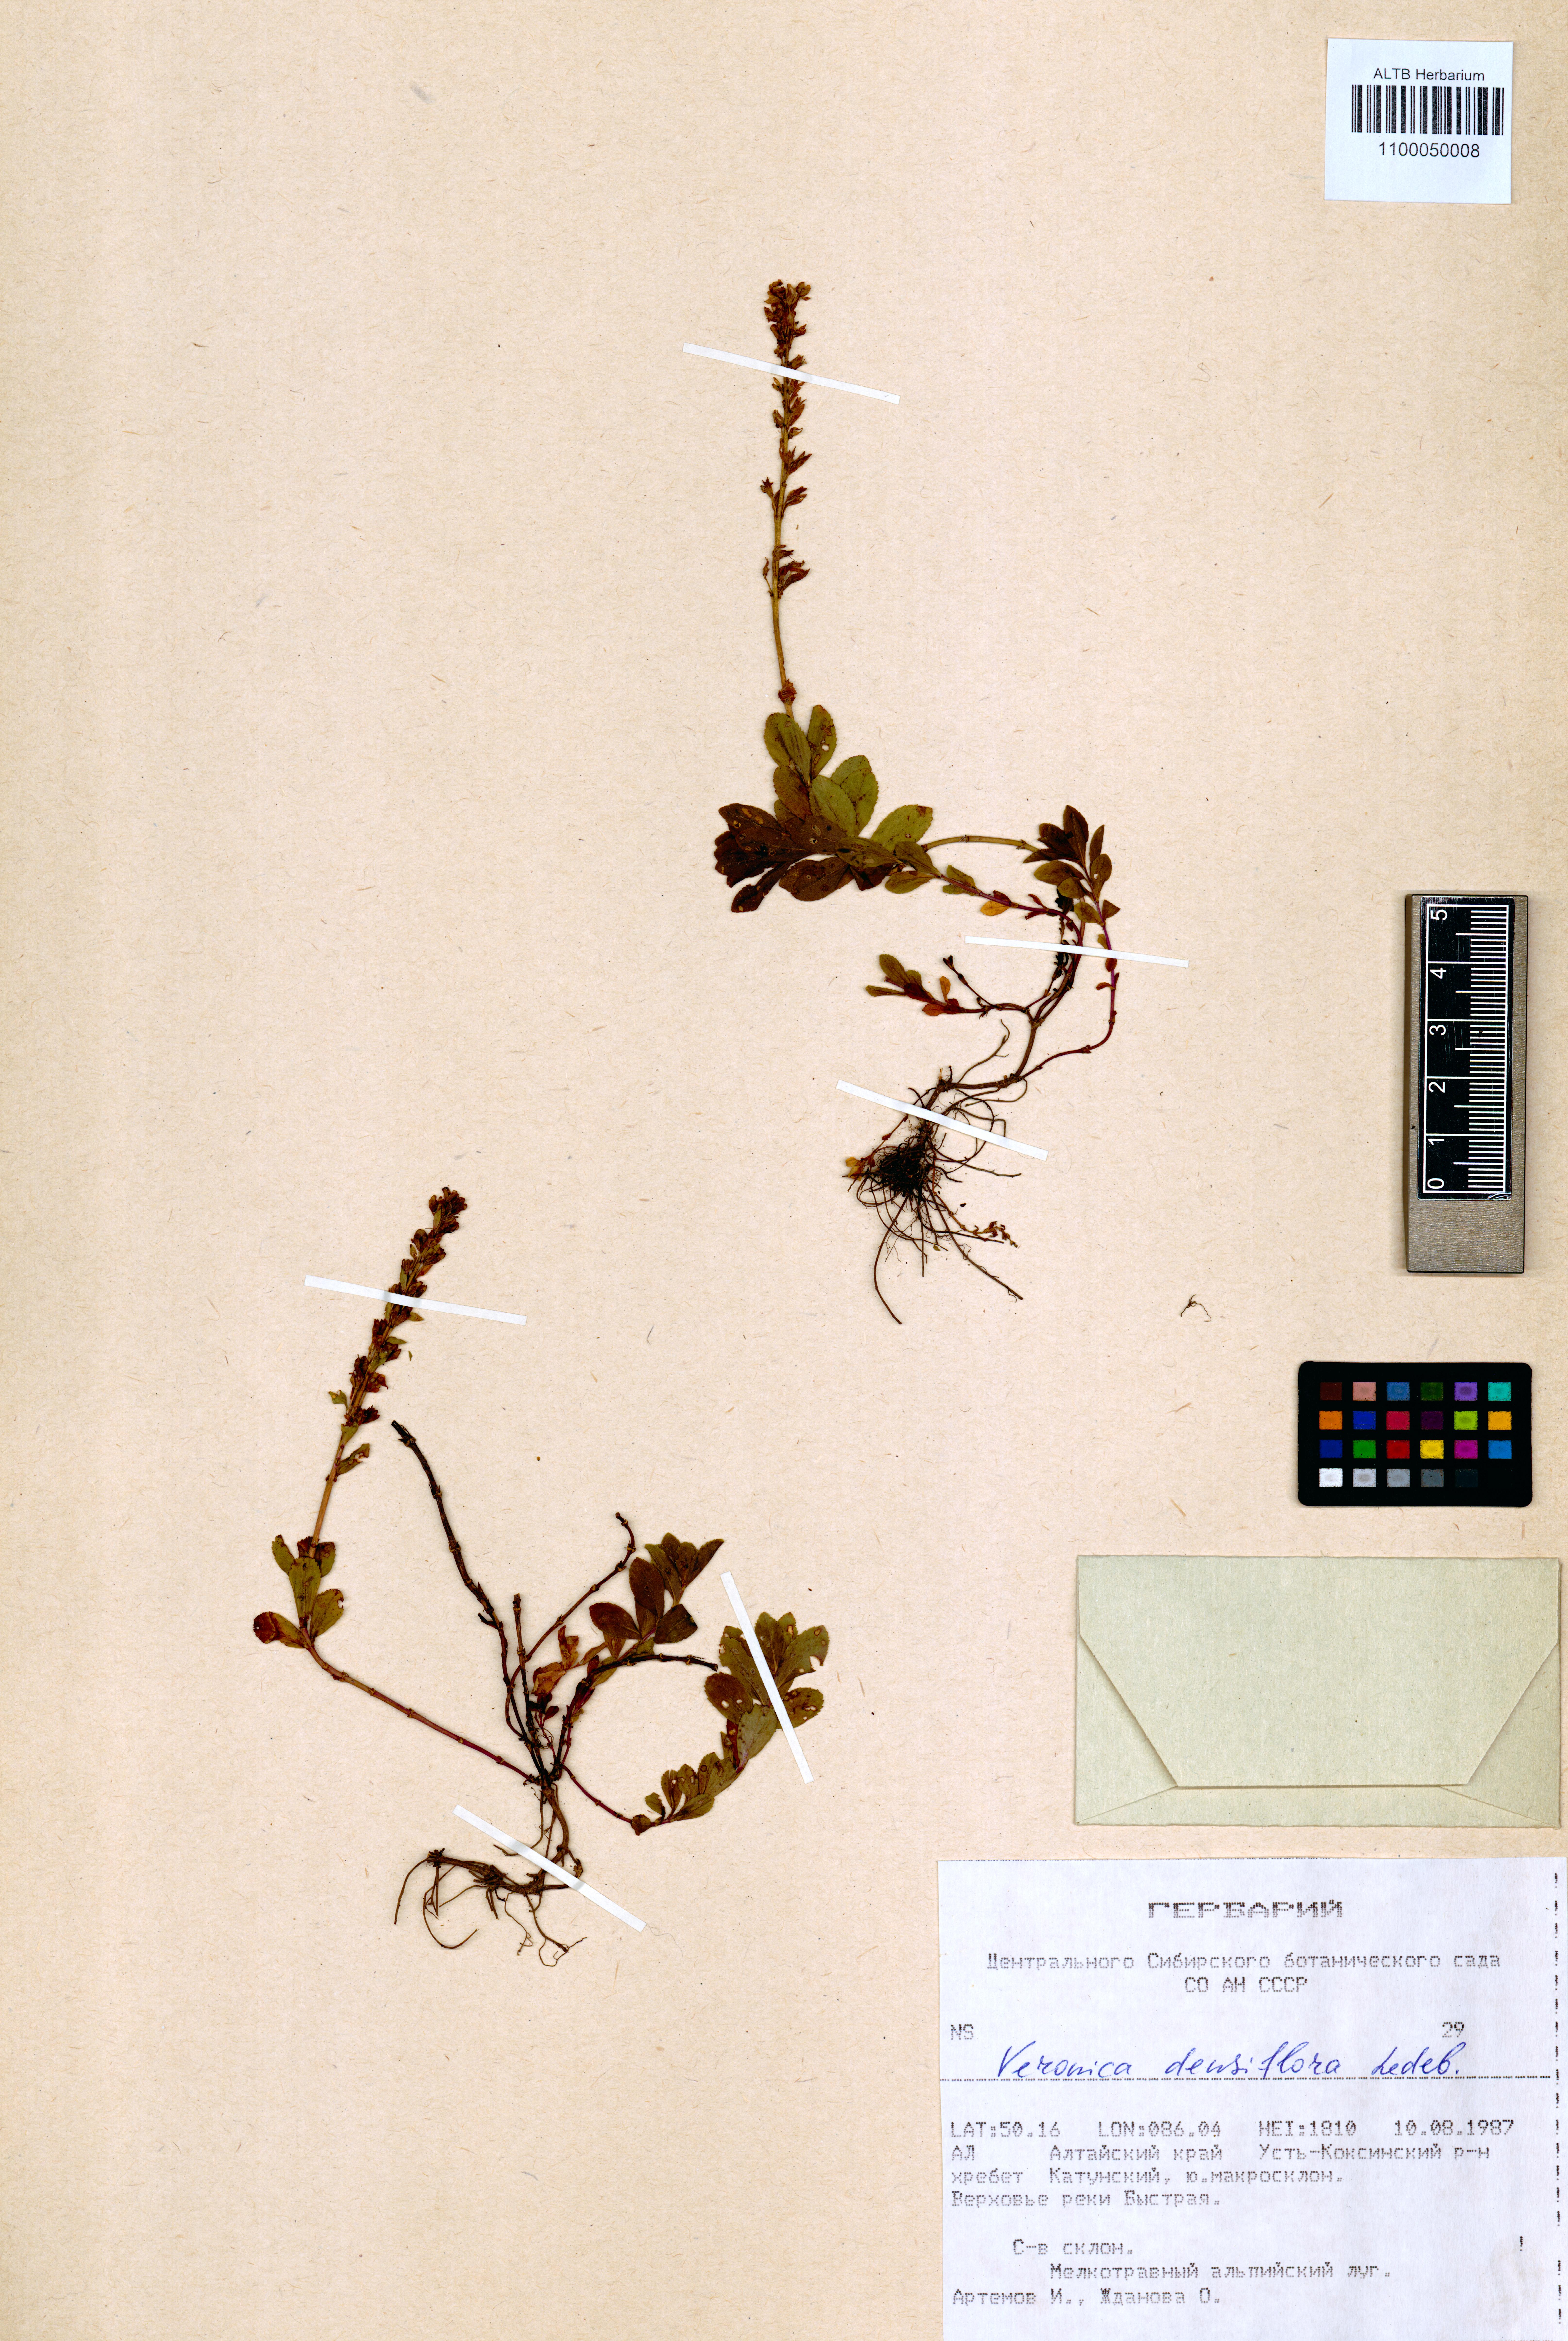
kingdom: Plantae
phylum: Tracheophyta
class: Magnoliopsida
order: Lamiales
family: Plantaginaceae
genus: Veronica
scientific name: Veronica densiflora
